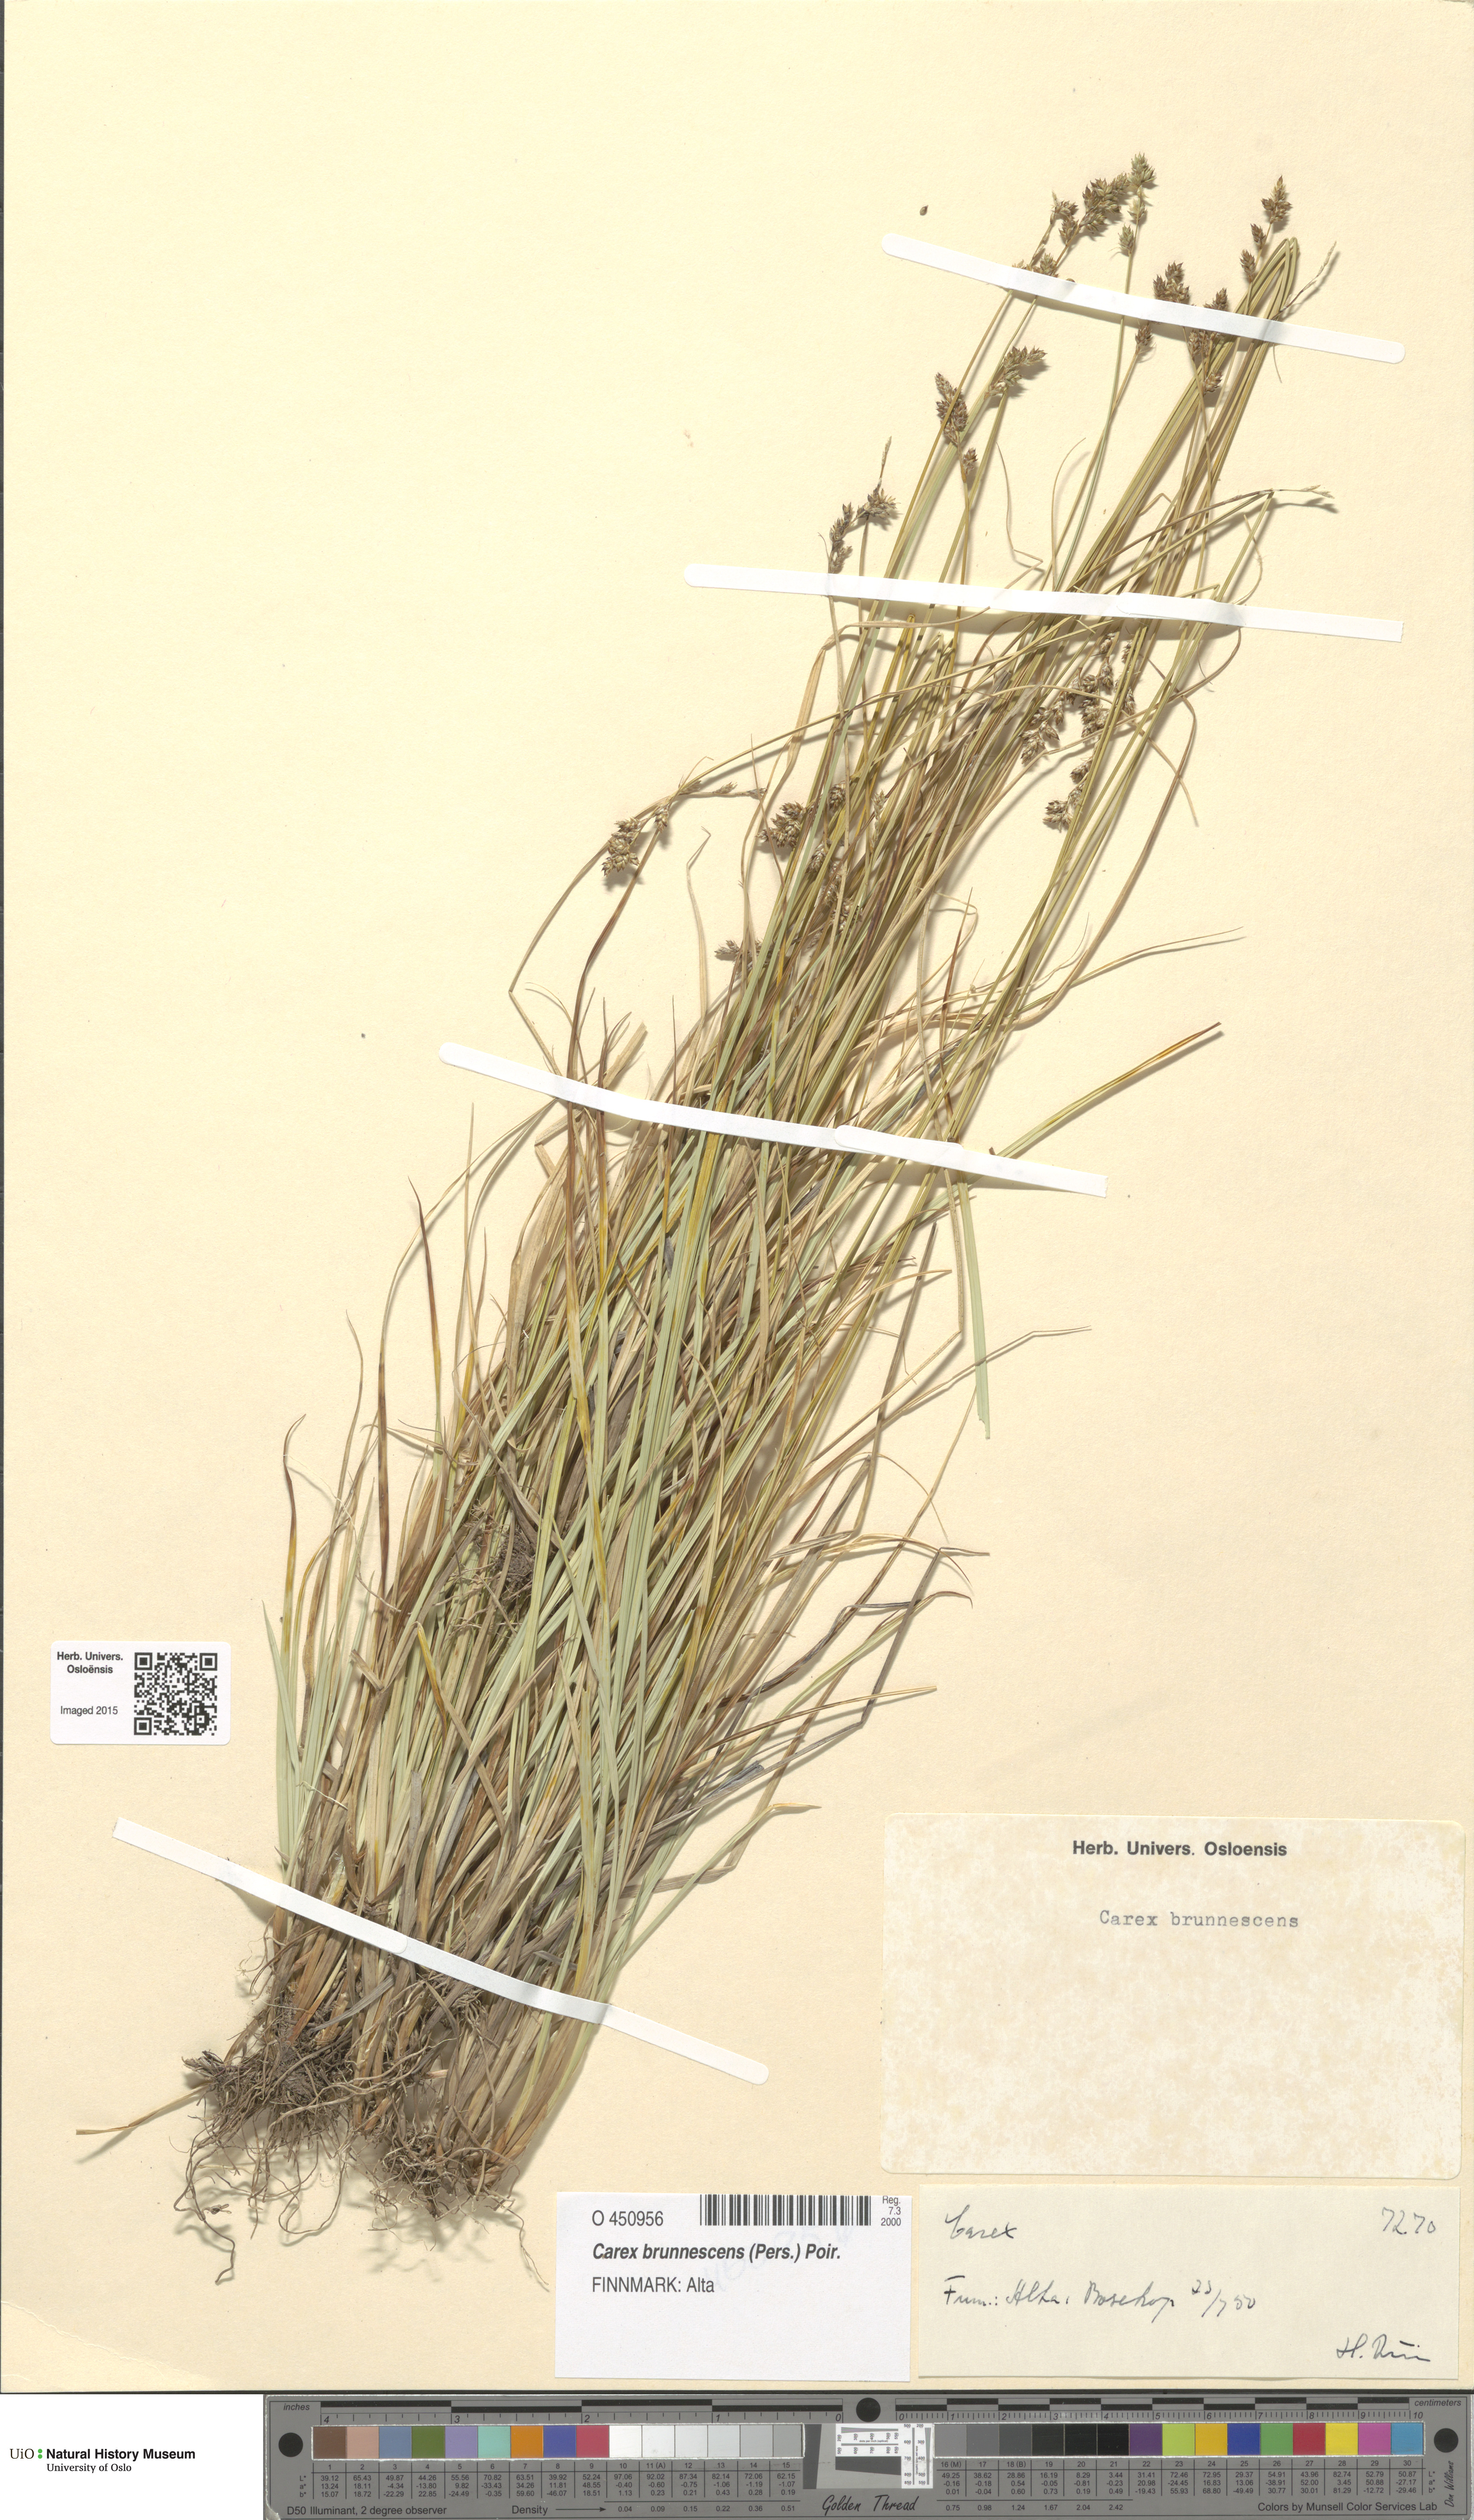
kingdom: Plantae
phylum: Tracheophyta
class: Liliopsida
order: Poales
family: Cyperaceae
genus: Carex
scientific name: Carex brunnescens
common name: Brown sedge
